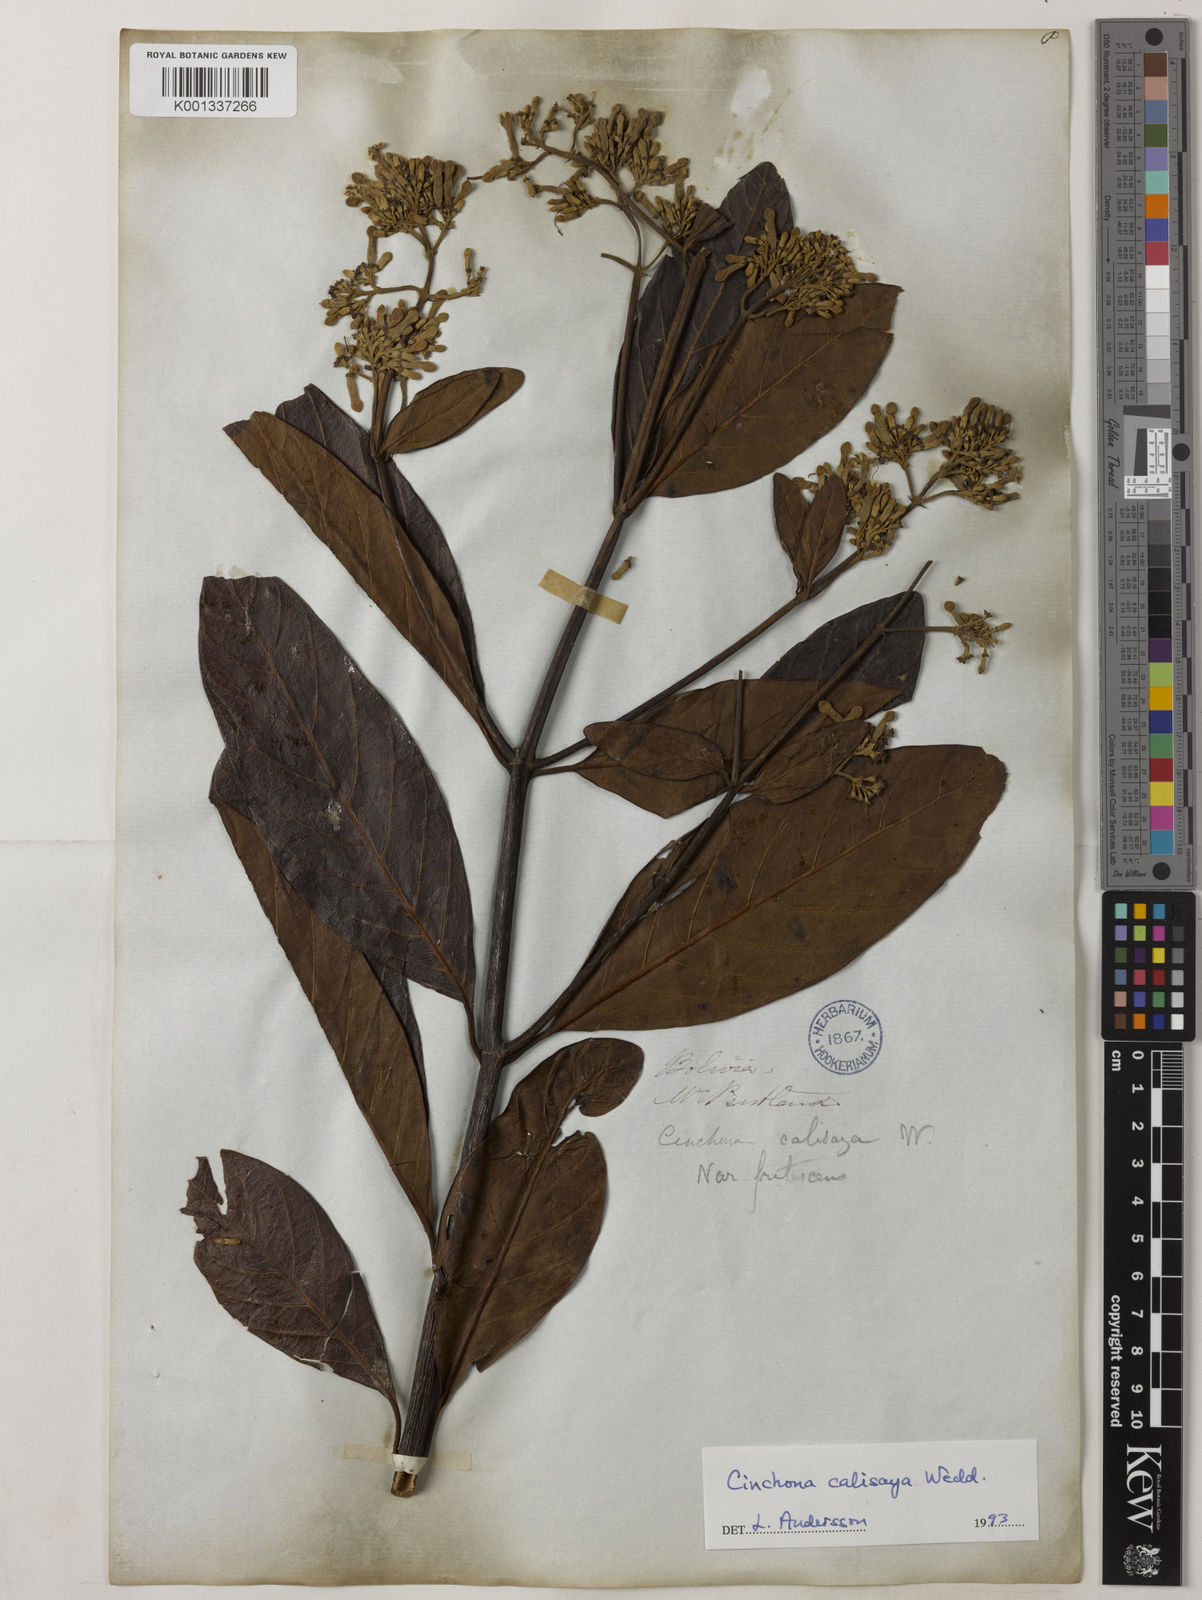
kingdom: Plantae
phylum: Tracheophyta
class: Magnoliopsida
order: Gentianales
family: Rubiaceae
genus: Cinchona
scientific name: Cinchona calisaya
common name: Ledgerbark
